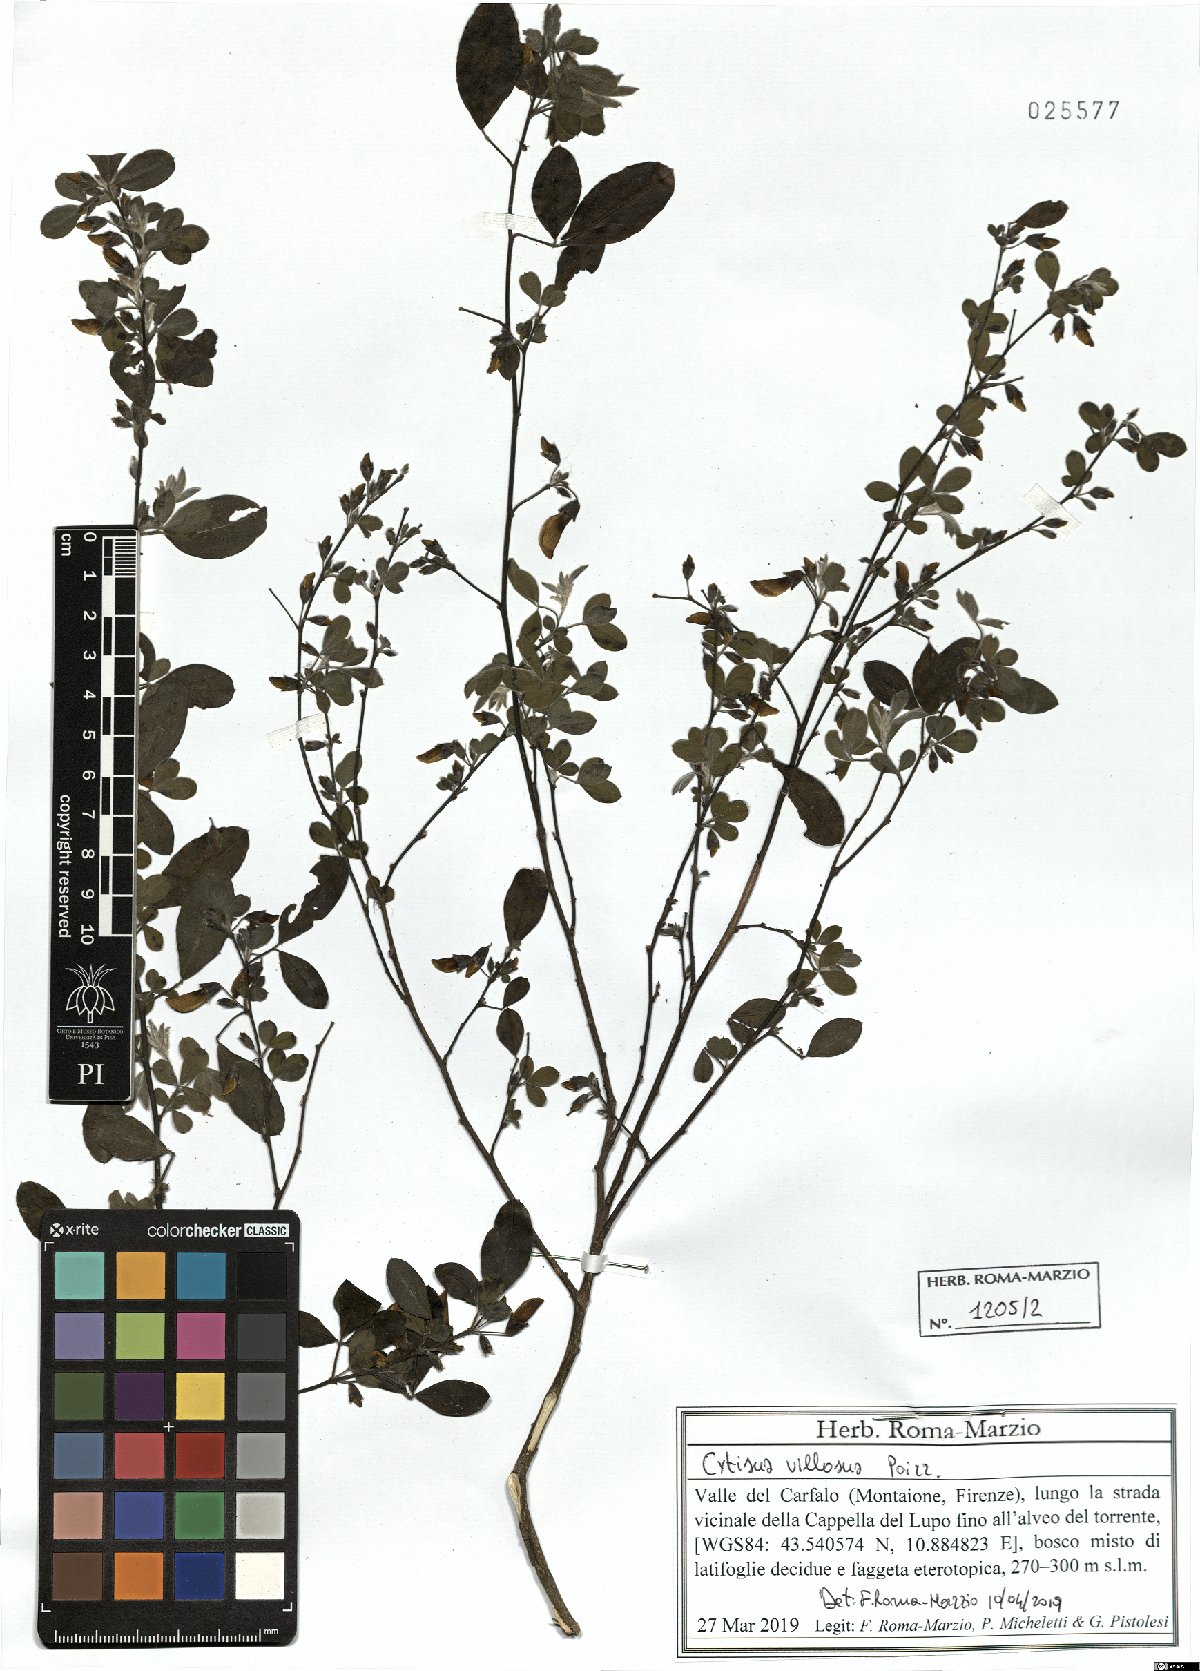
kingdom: Plantae
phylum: Tracheophyta
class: Magnoliopsida
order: Fabales
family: Fabaceae
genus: Cytisus
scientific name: Cytisus villosus
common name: Hairybroom
